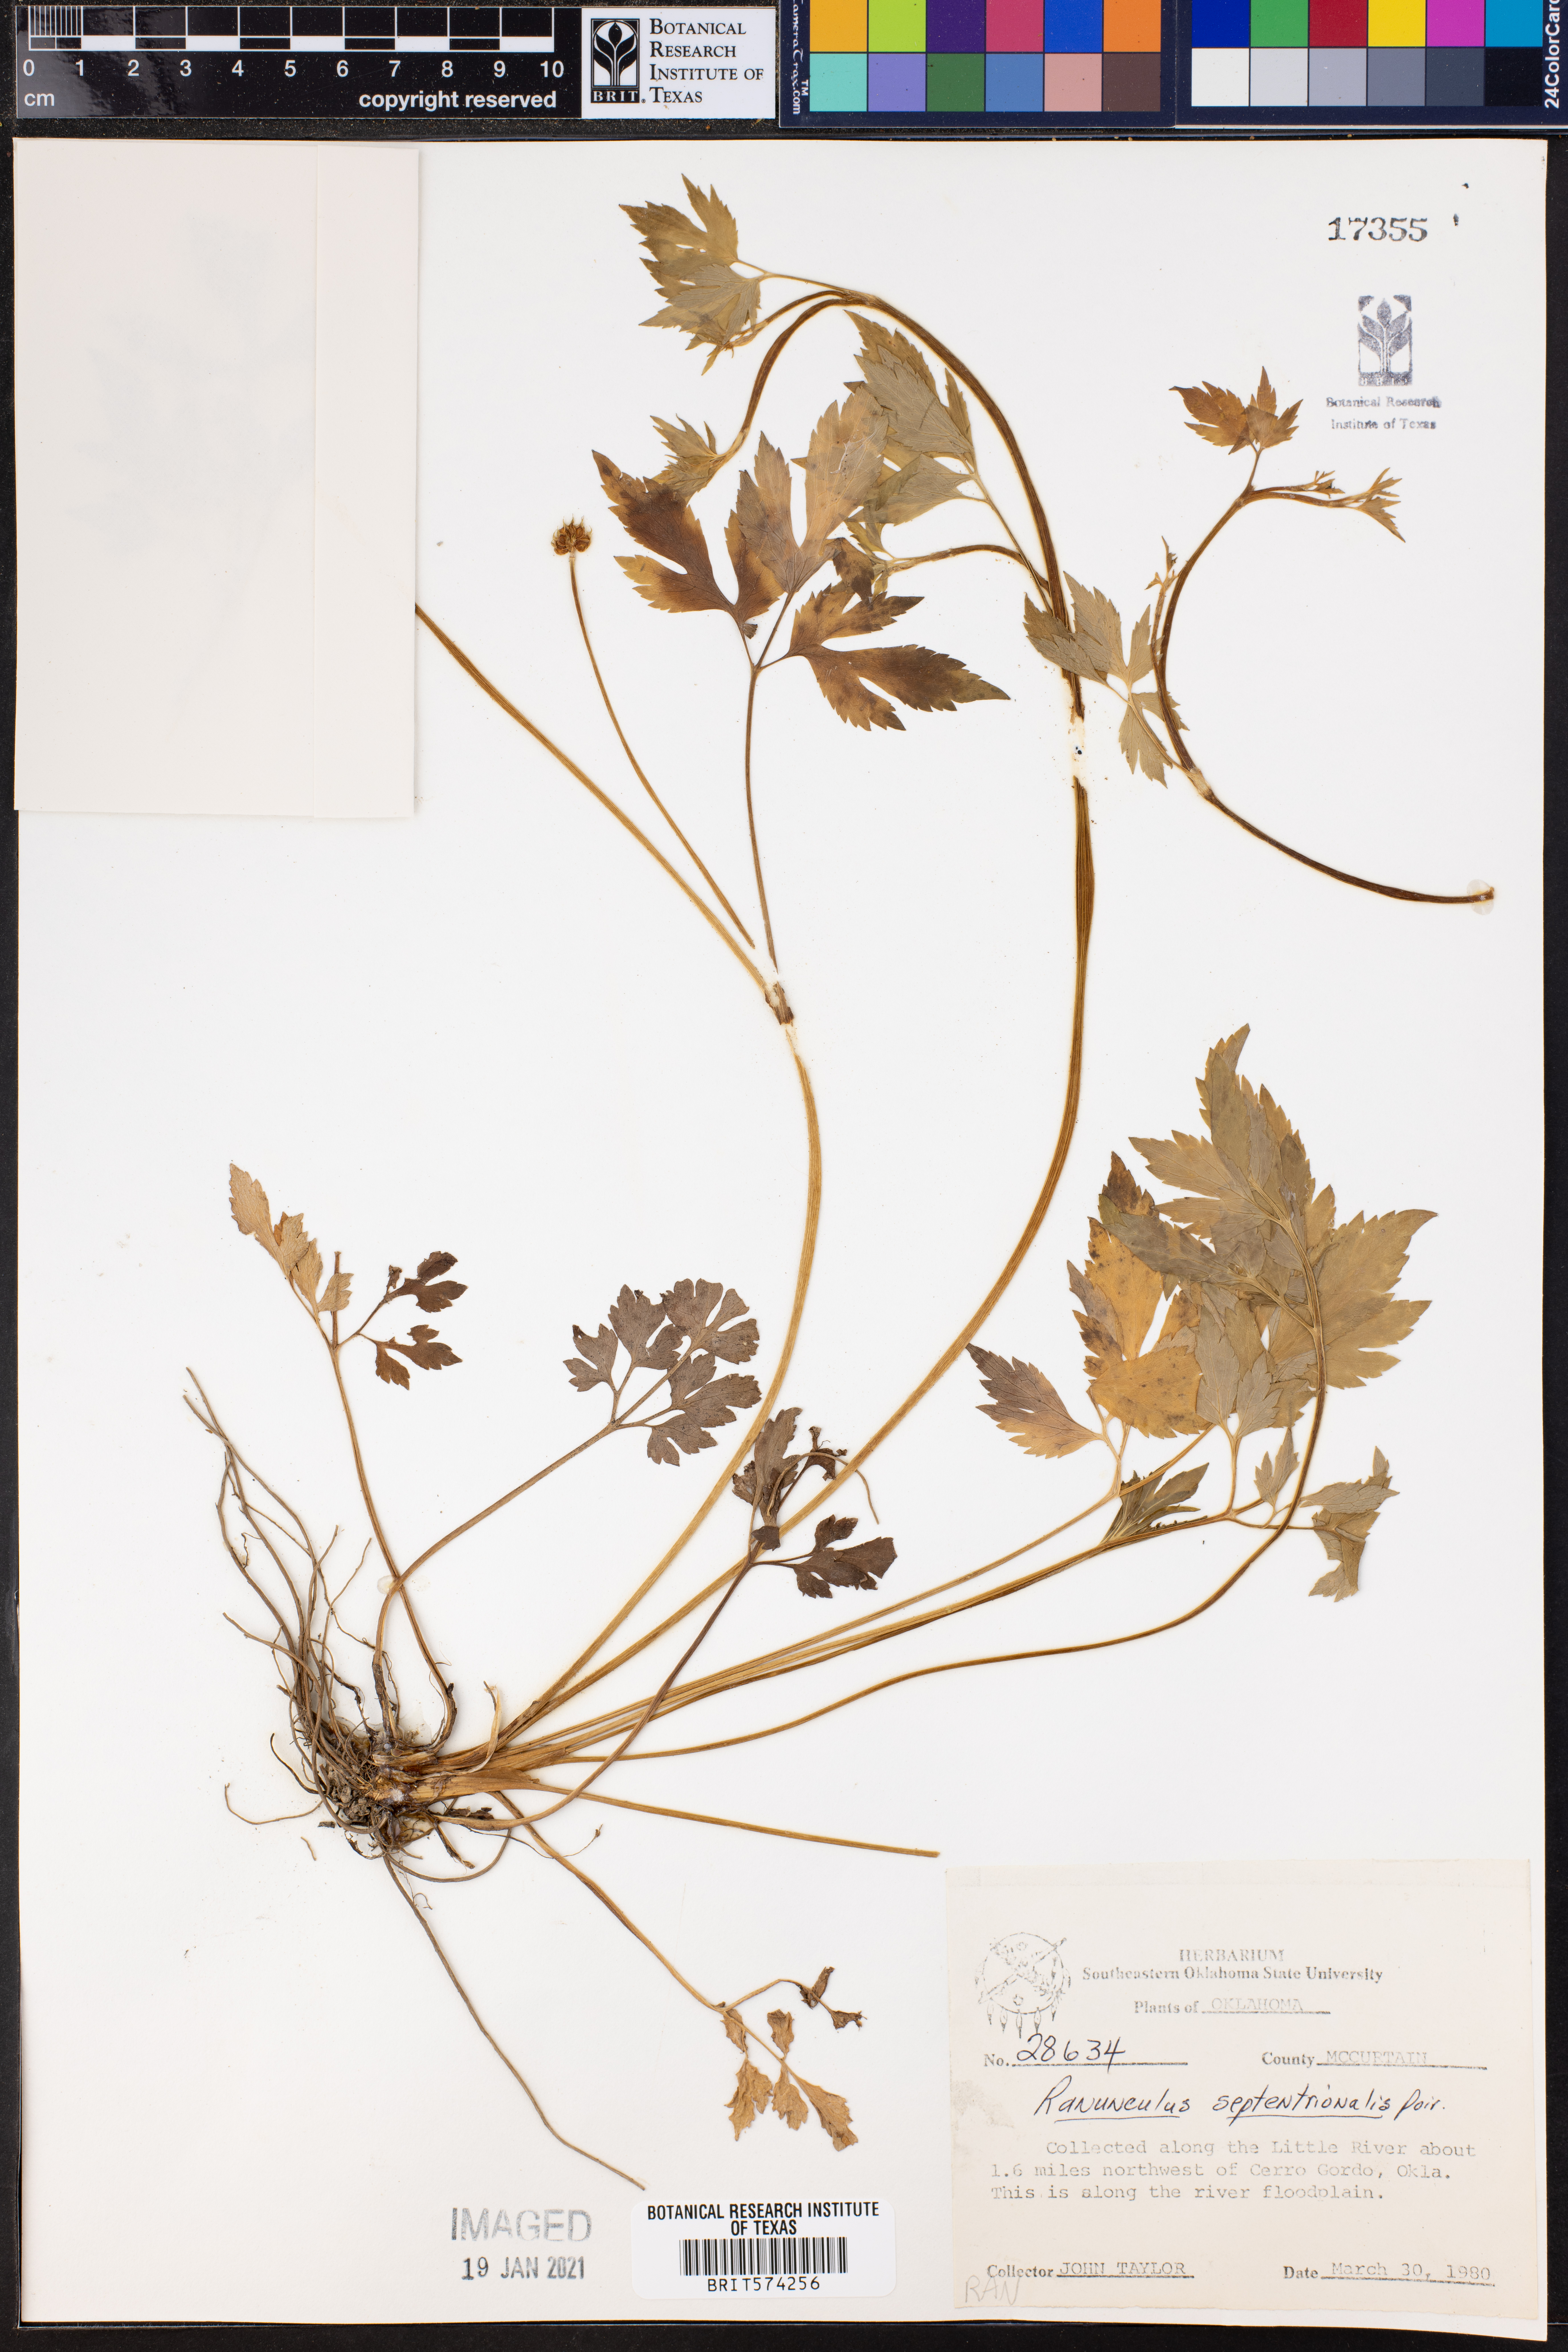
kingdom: Plantae
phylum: Tracheophyta
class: Magnoliopsida
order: Ranunculales
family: Ranunculaceae
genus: Ranunculus
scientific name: Ranunculus hispidus
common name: Bristly buttercup
